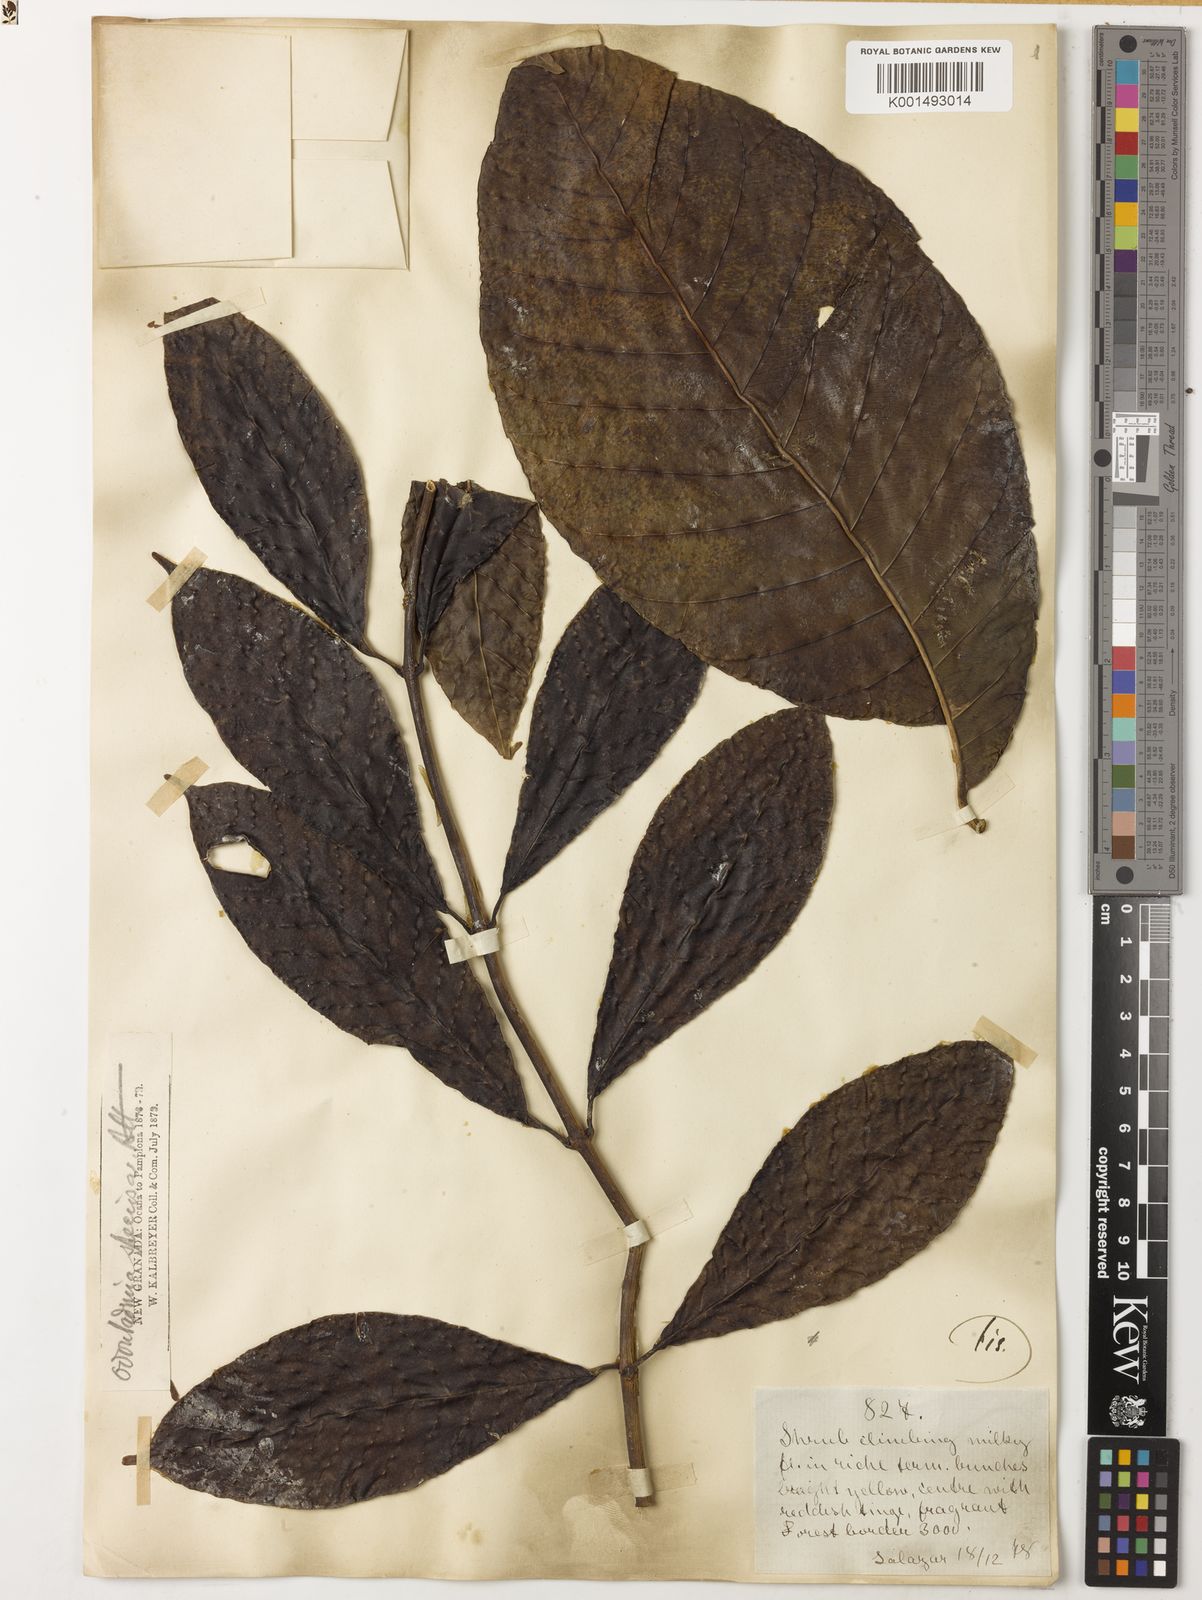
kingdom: Plantae
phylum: Tracheophyta
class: Magnoliopsida
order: Gentianales
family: Apocynaceae
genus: Odontadenia
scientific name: Odontadenia semidigyna
